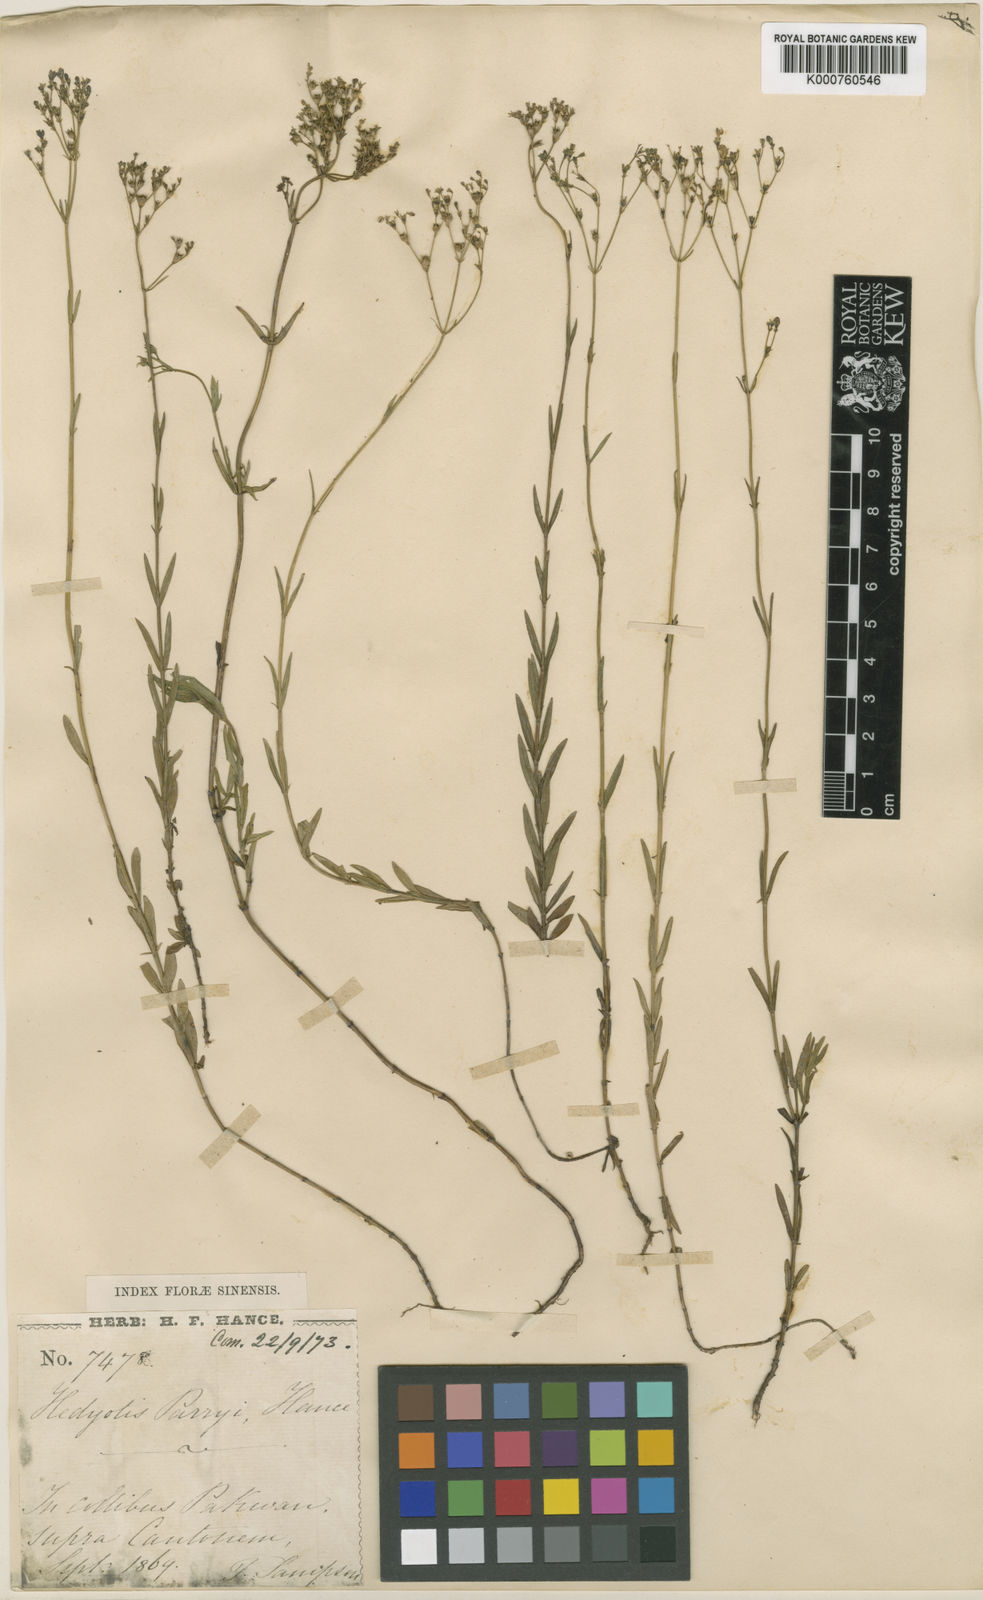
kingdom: Plantae
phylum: Tracheophyta
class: Magnoliopsida
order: Gentianales
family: Rubiaceae
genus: Hedyotis
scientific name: Hedyotis tetrangularis
